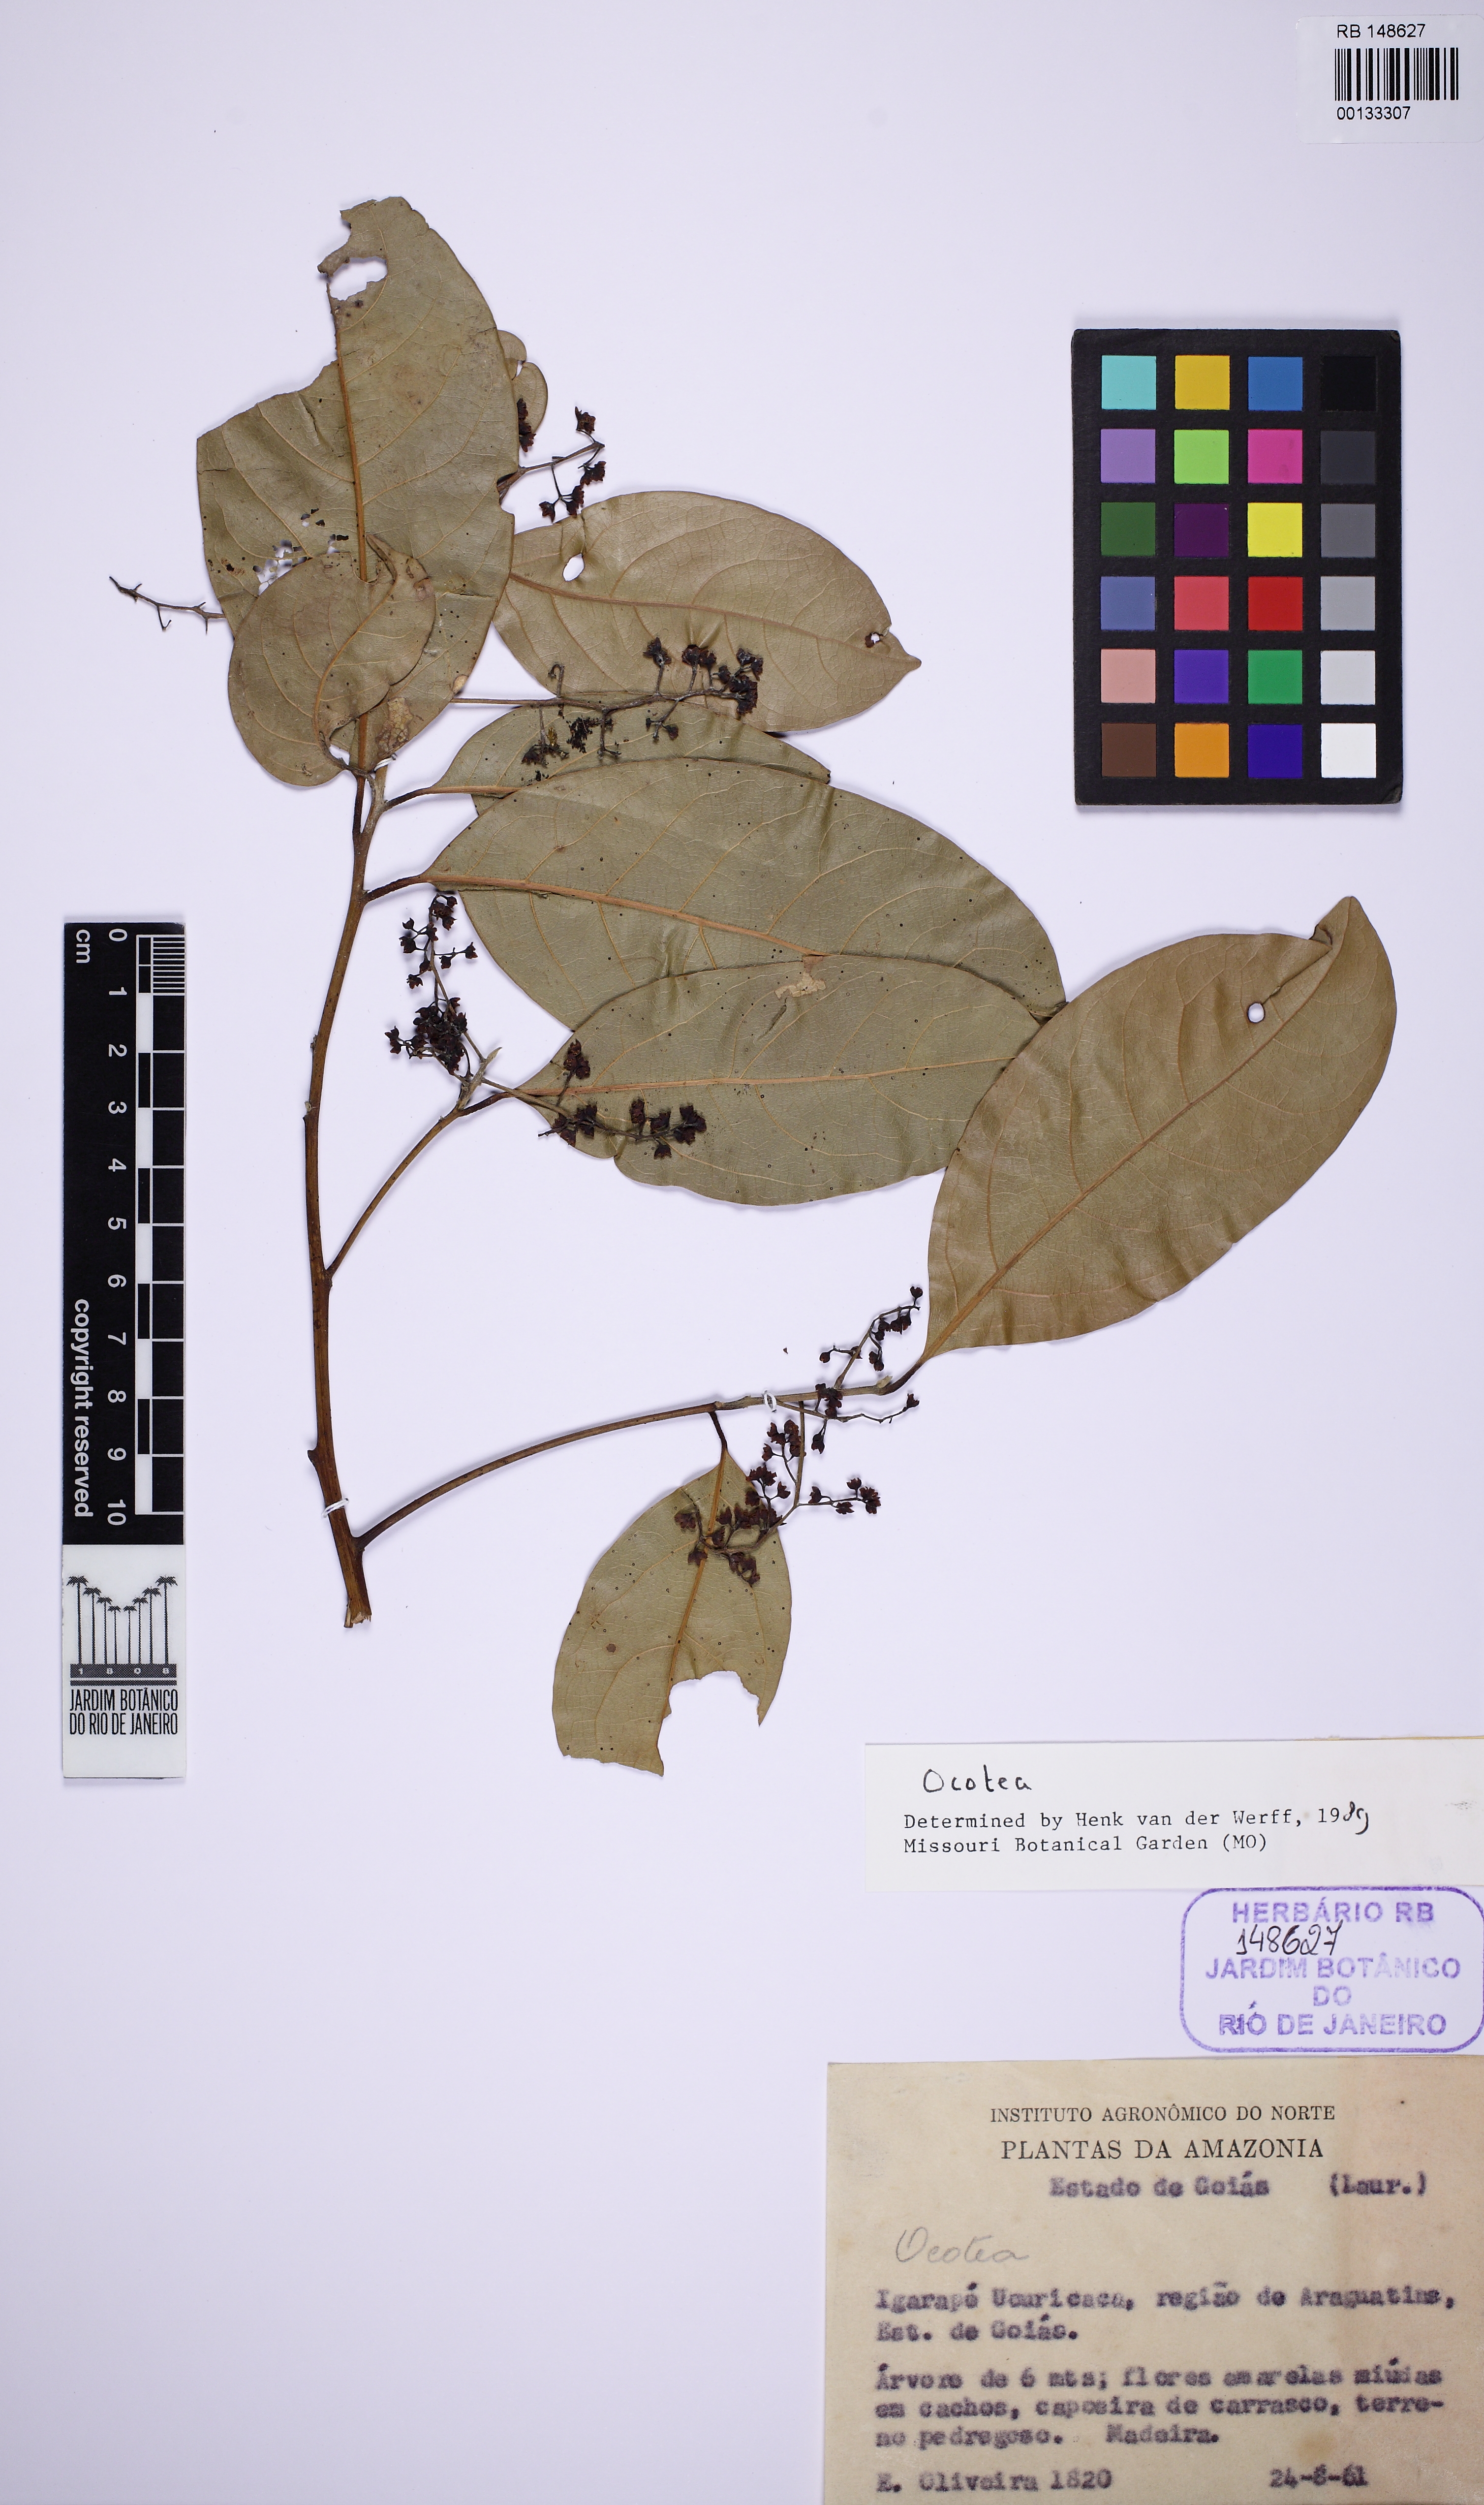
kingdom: Plantae
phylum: Tracheophyta
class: Magnoliopsida
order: Laurales
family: Lauraceae
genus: Ocotea
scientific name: Ocotea
